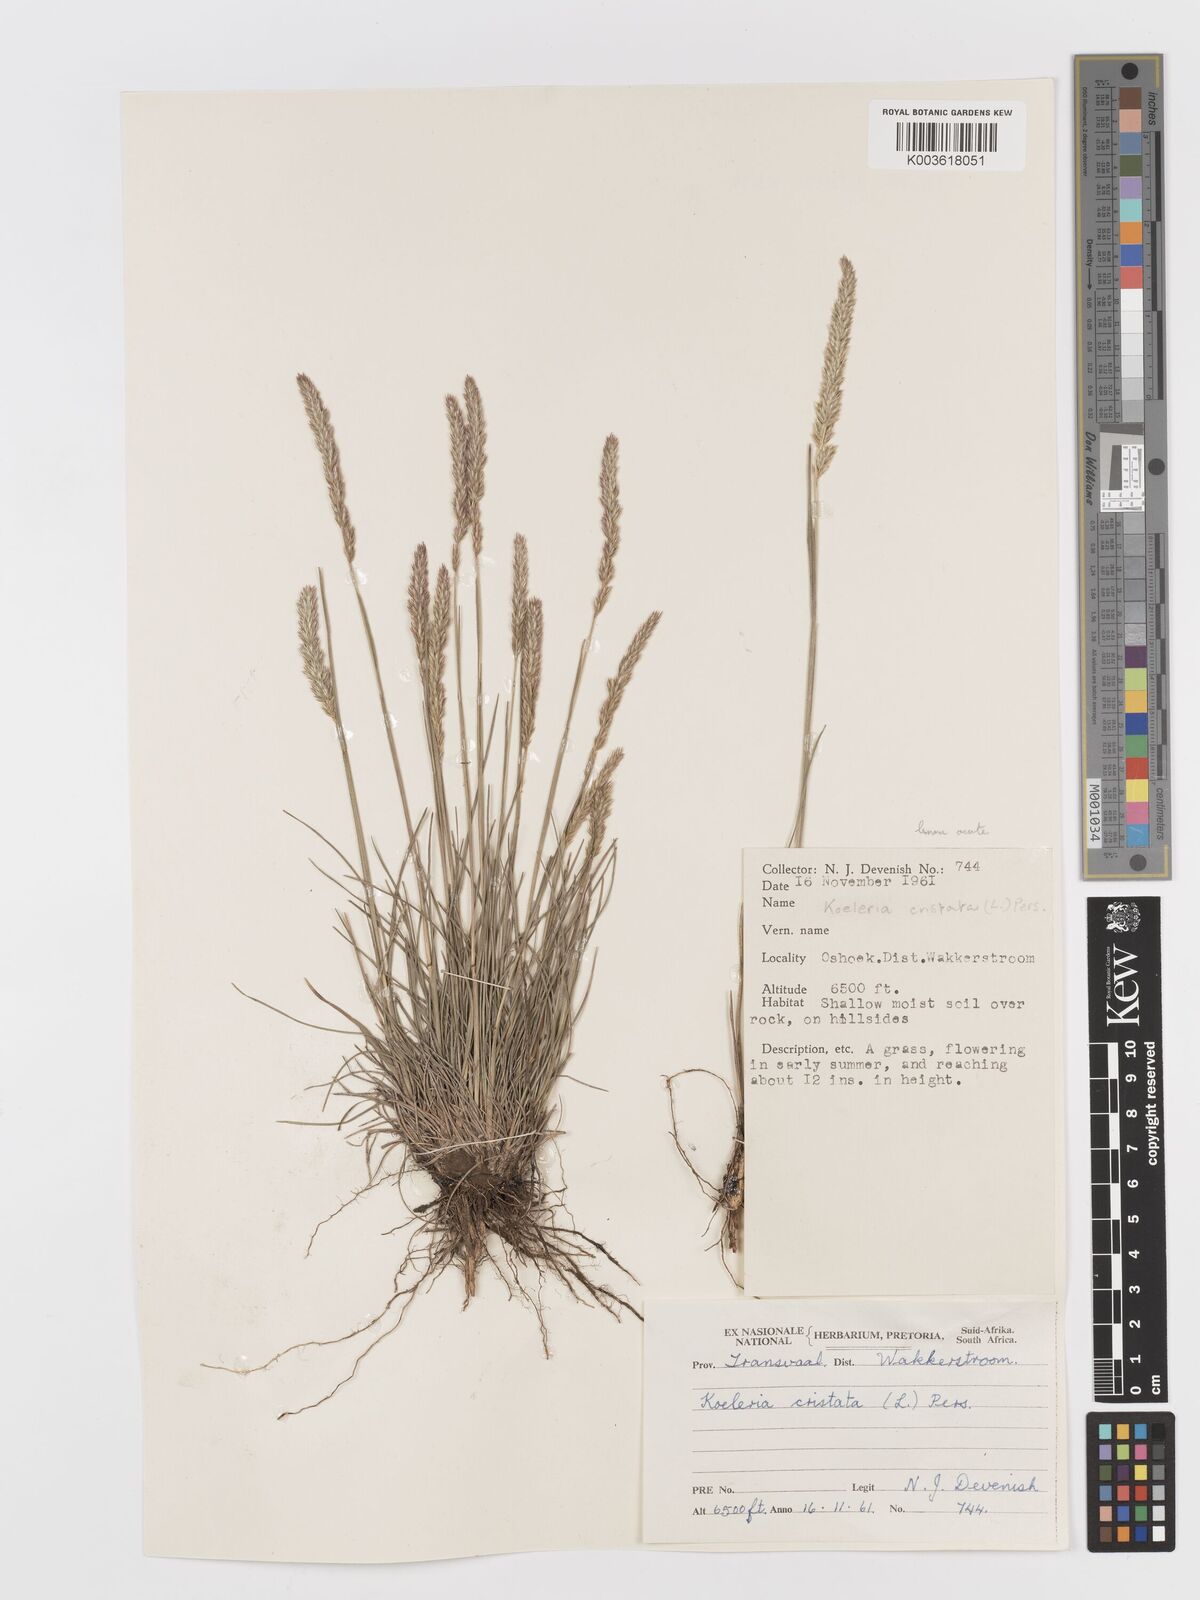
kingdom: Plantae
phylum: Tracheophyta
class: Liliopsida
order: Poales
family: Poaceae
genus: Koeleria
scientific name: Koeleria capensis
